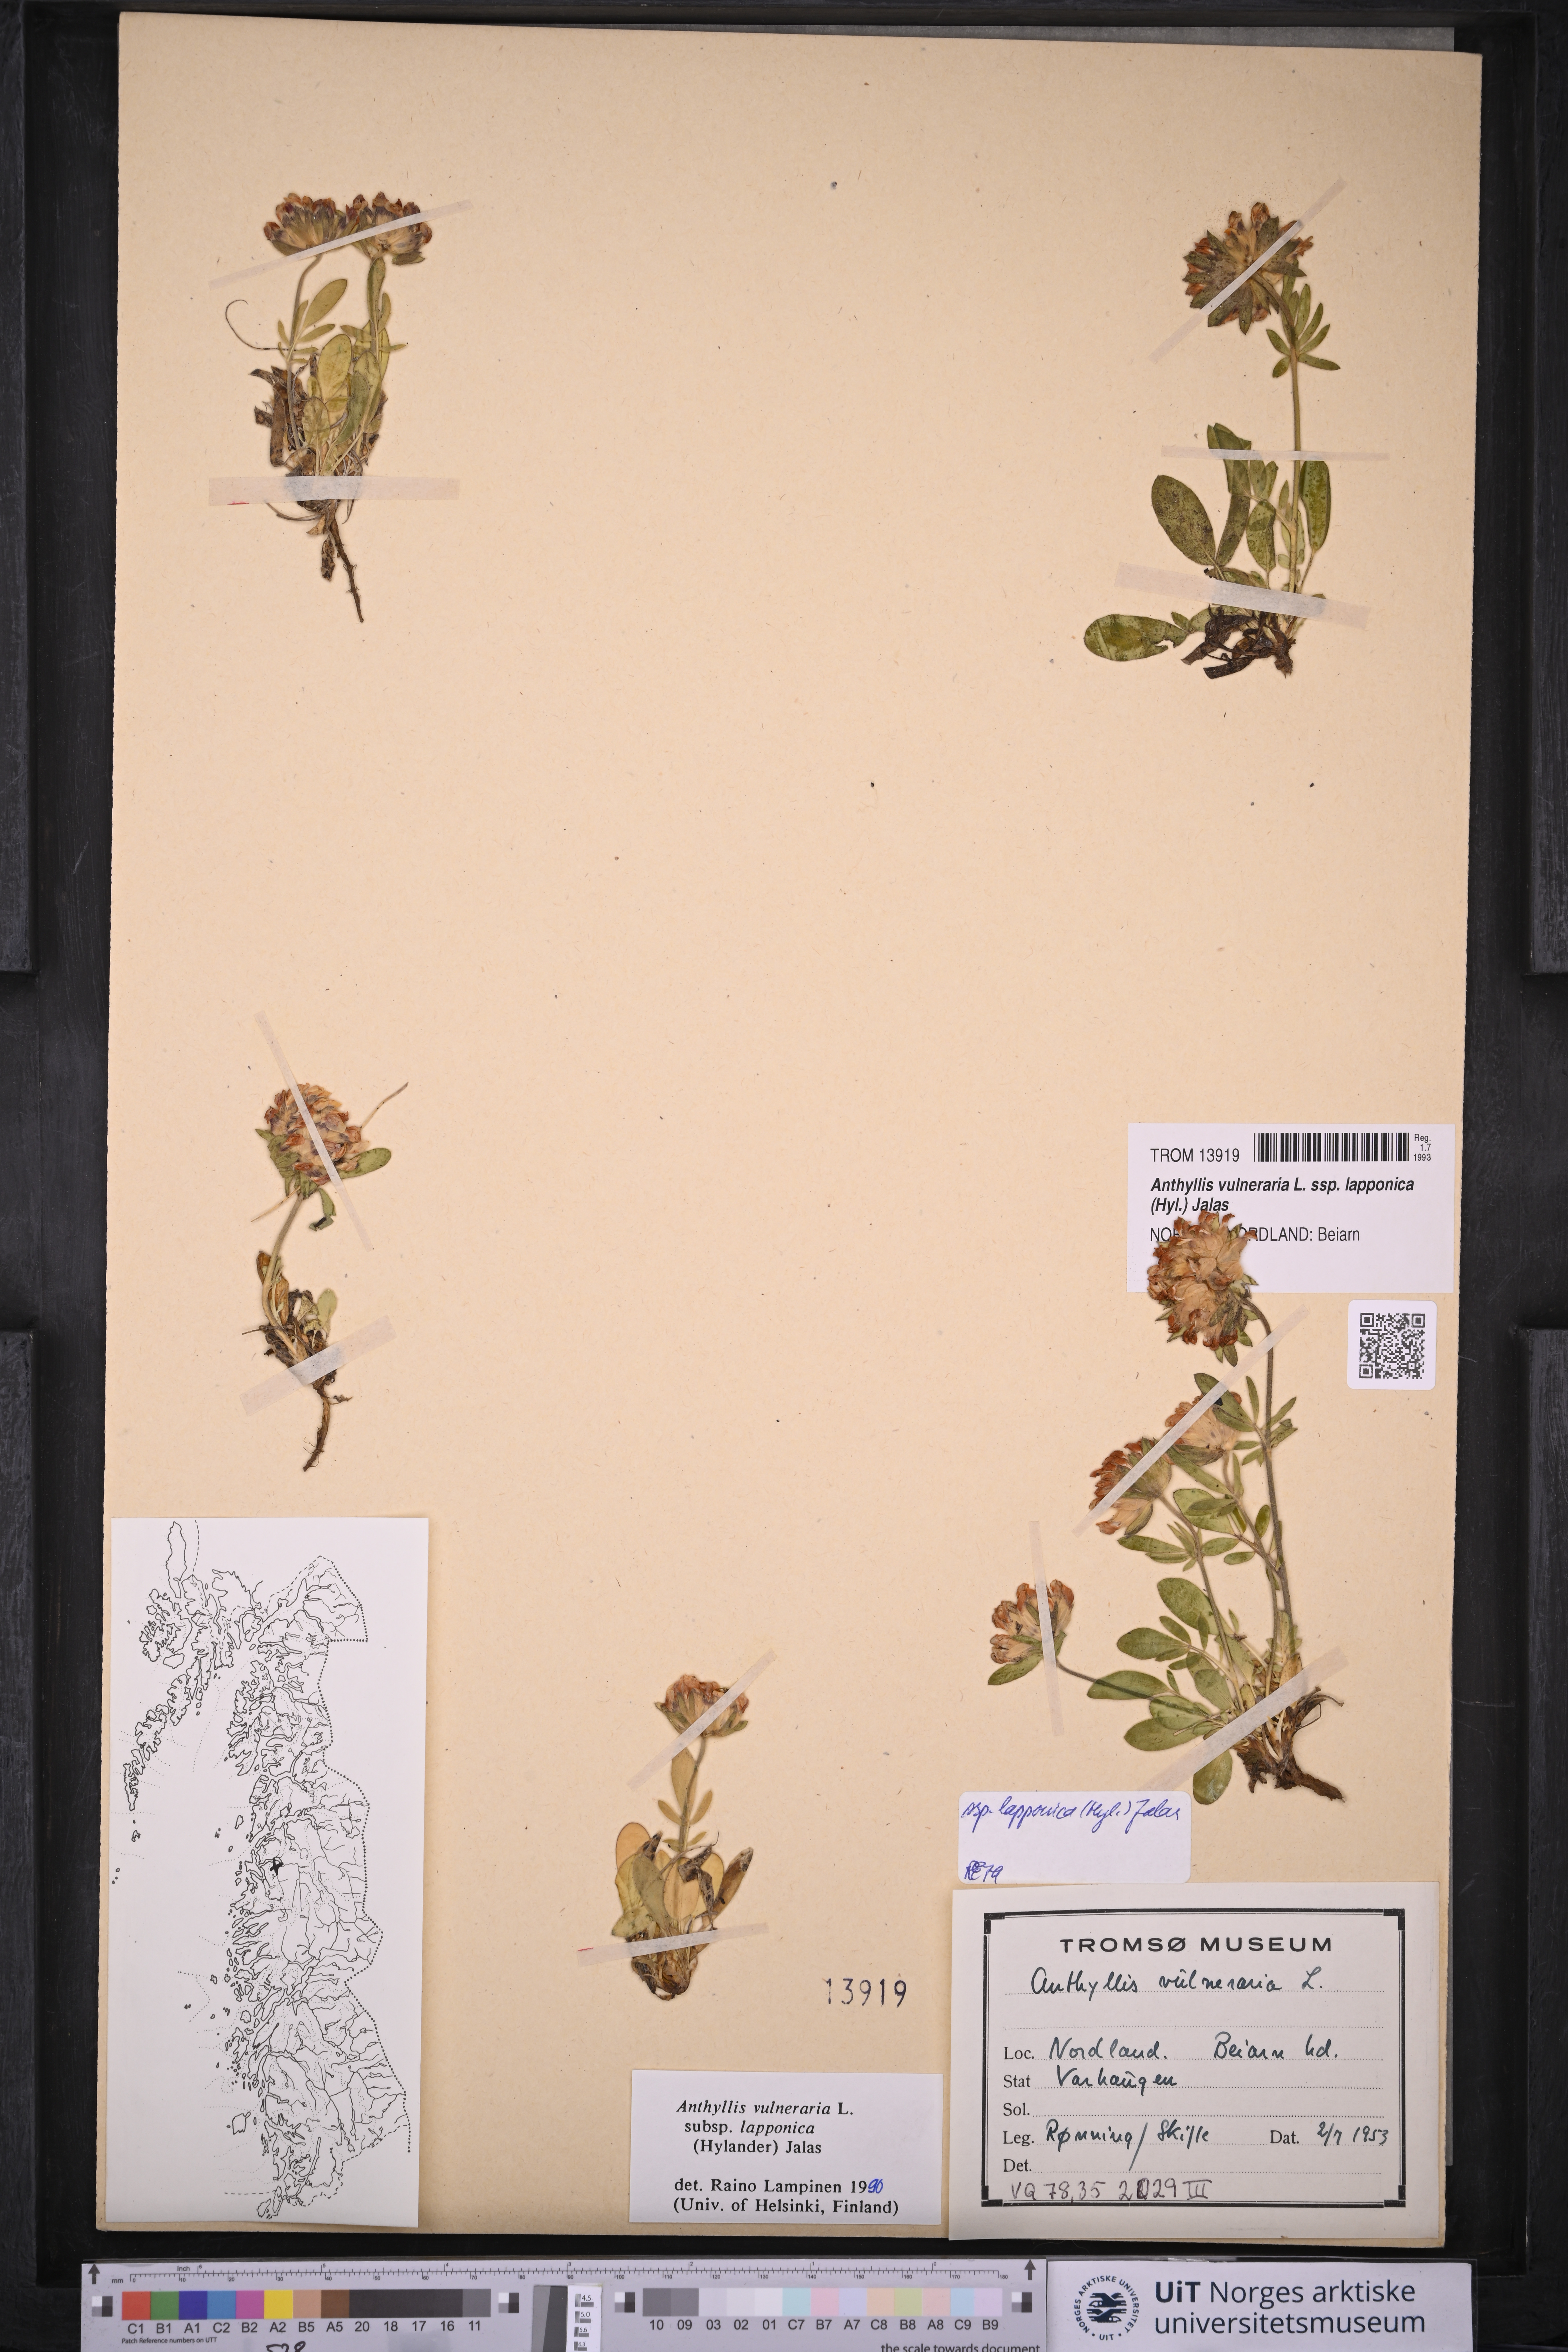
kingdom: Plantae
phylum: Tracheophyta
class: Magnoliopsida
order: Fabales
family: Fabaceae
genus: Anthyllis
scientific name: Anthyllis vulneraria
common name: Kidney vetch
